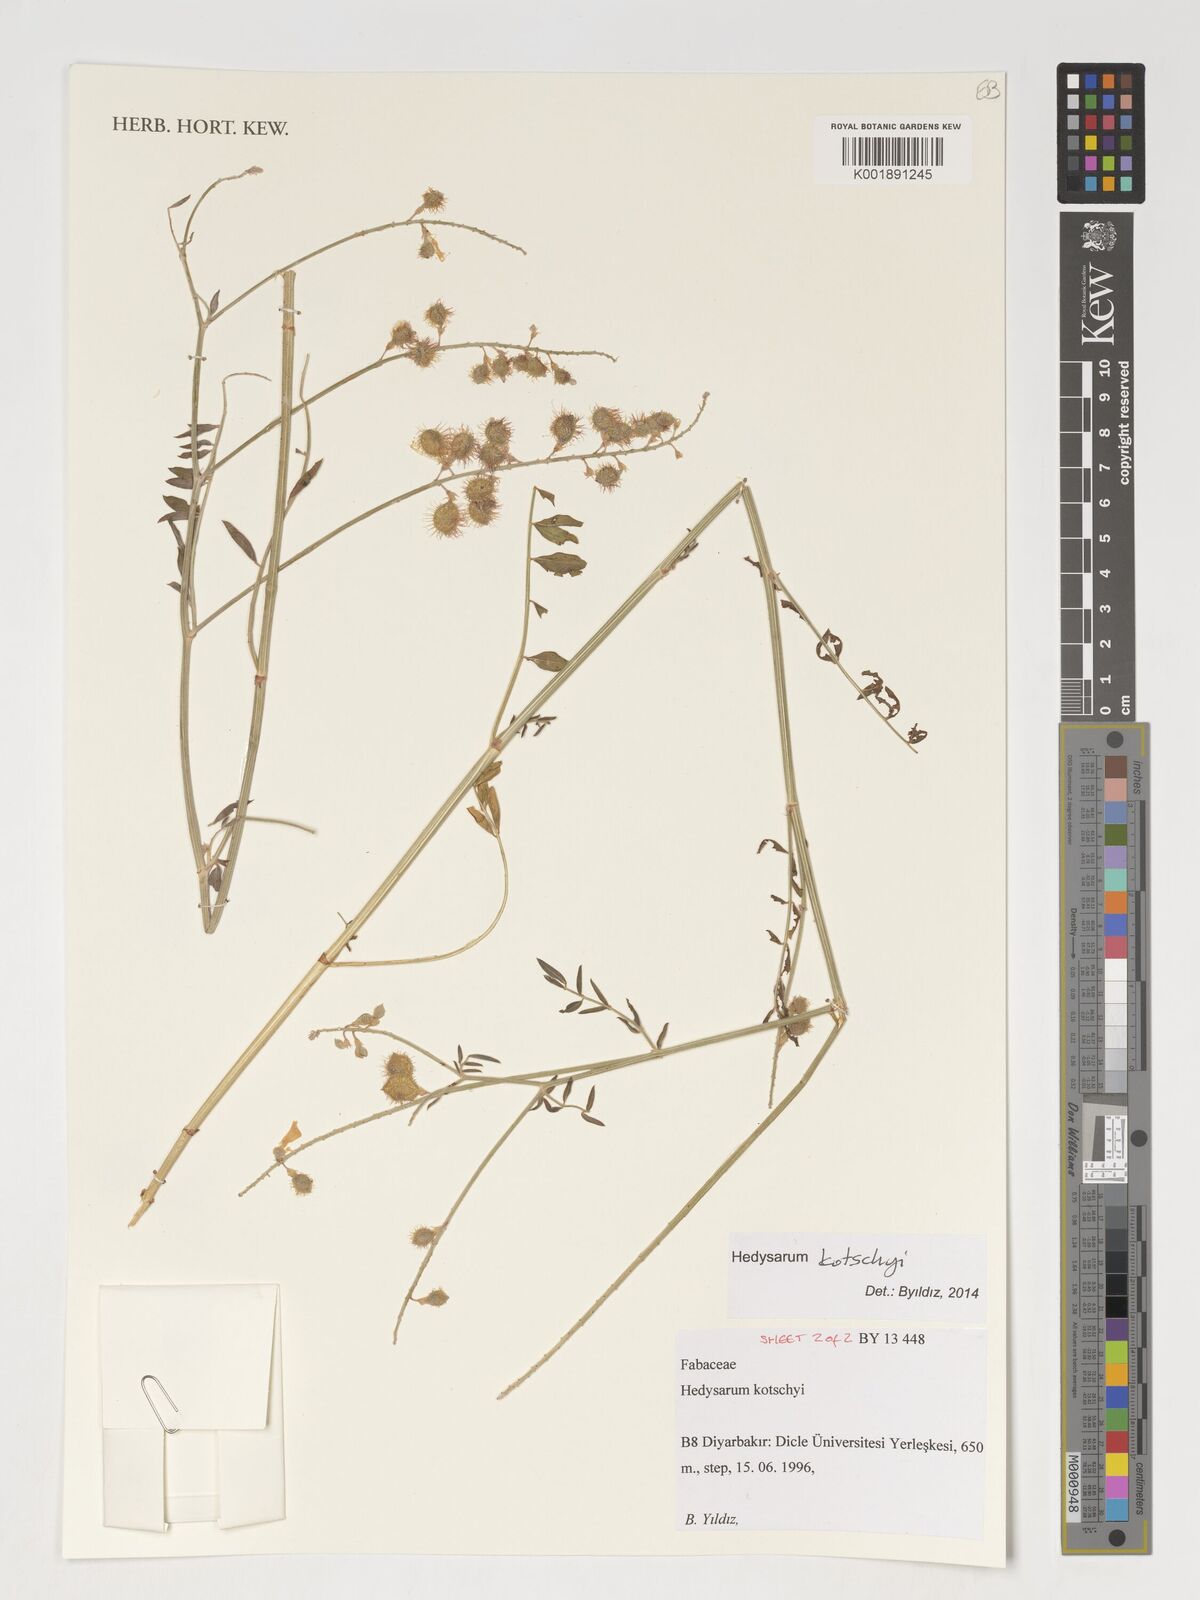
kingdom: Plantae
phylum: Tracheophyta
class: Magnoliopsida
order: Fabales
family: Fabaceae
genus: Hedysarum
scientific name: Hedysarum kotschyi
